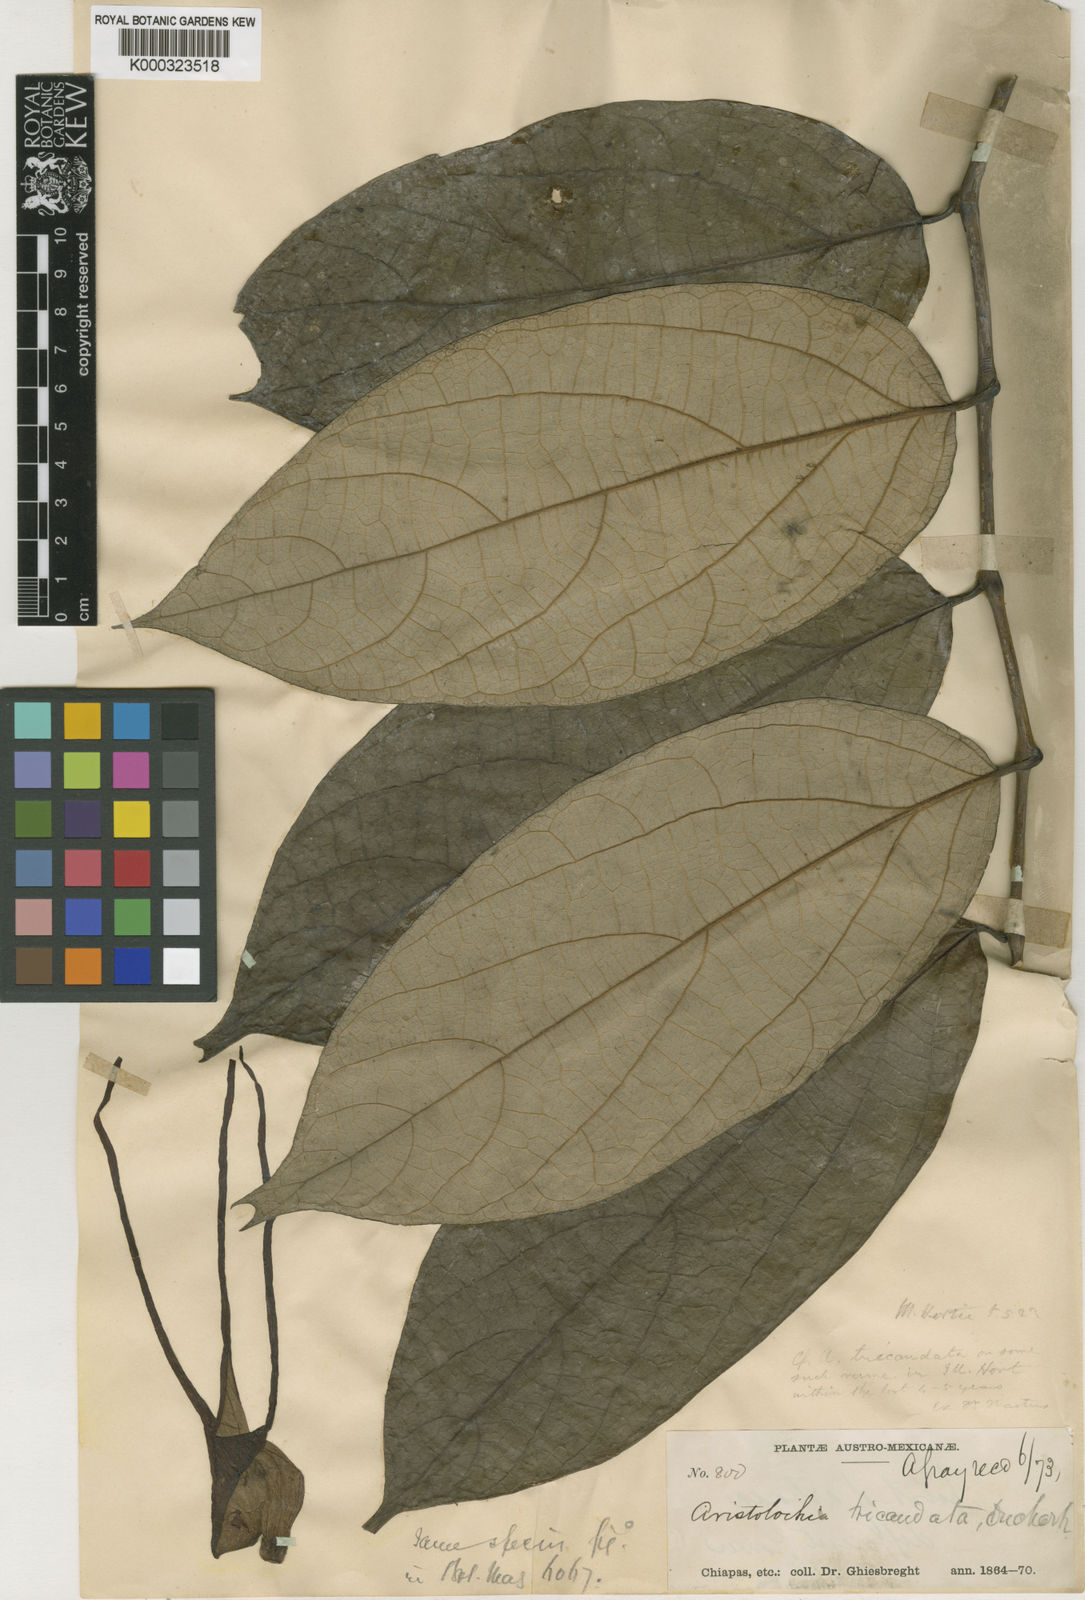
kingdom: Plantae
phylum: Tracheophyta
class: Magnoliopsida
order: Piperales
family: Aristolochiaceae
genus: Isotrema
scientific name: Isotrema tricaudatum
